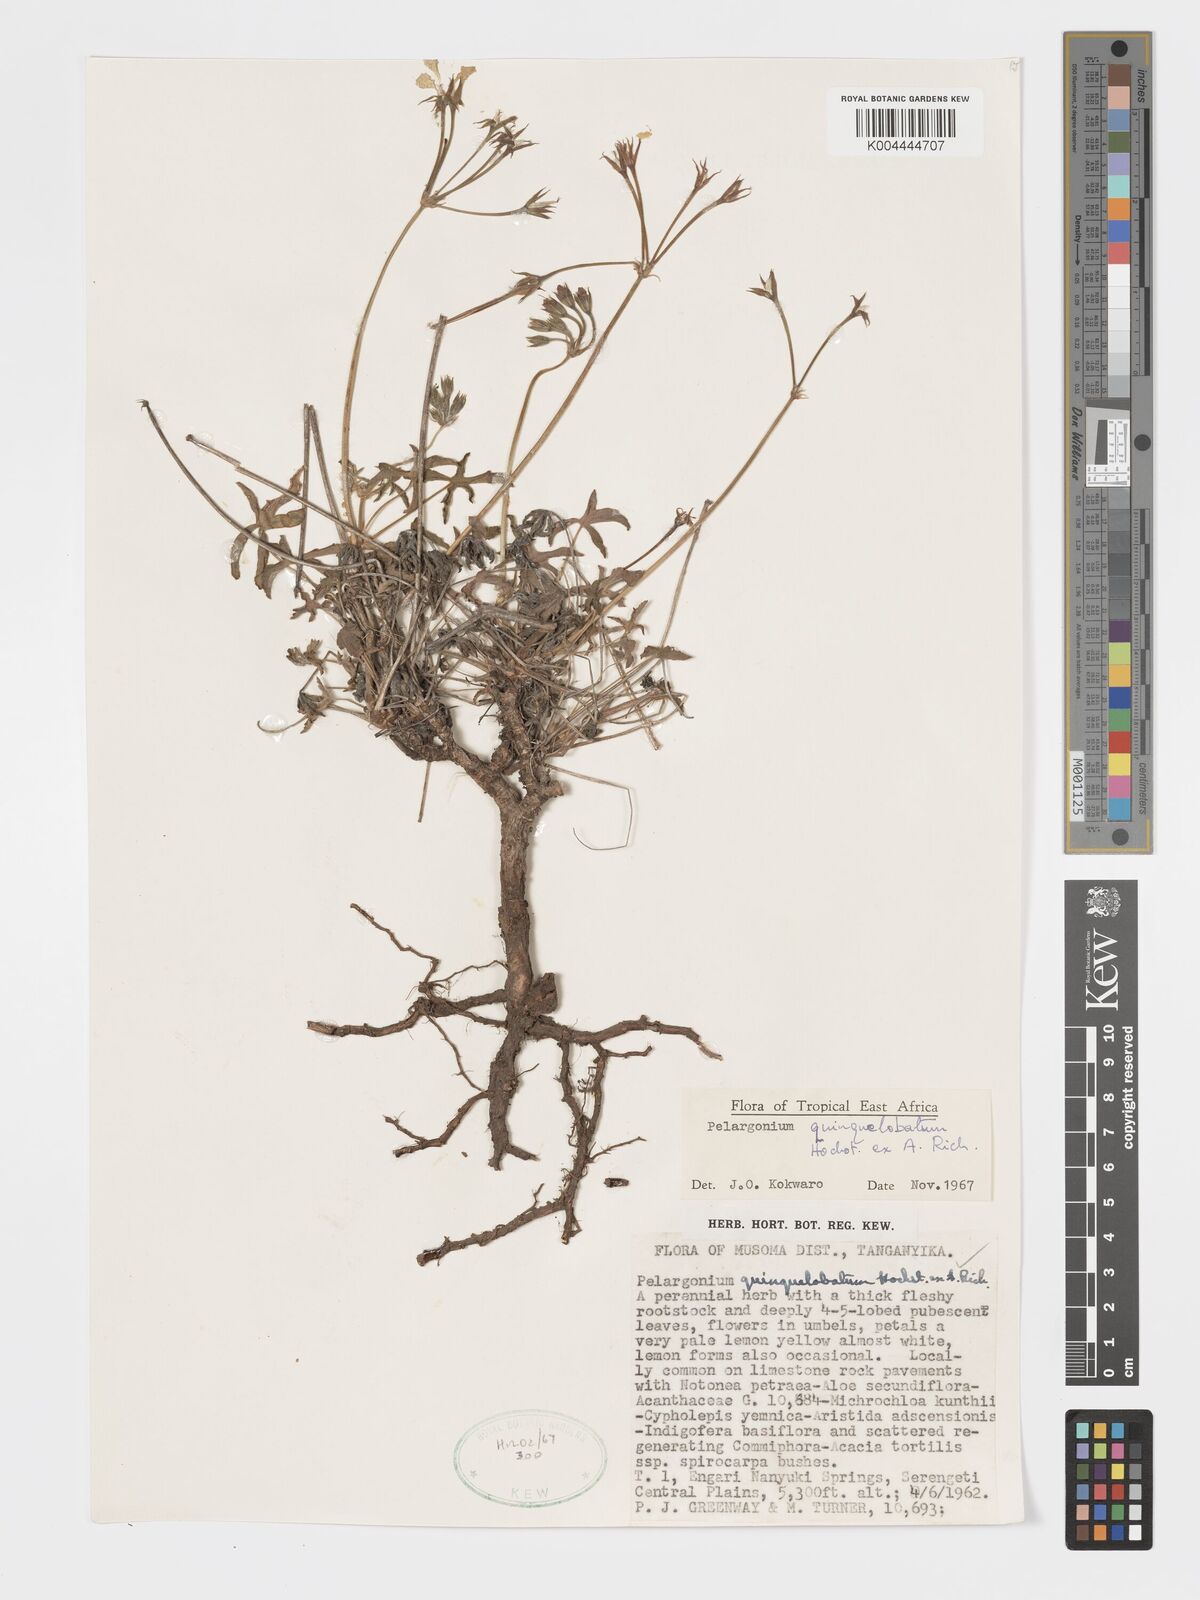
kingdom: Plantae
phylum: Tracheophyta
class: Magnoliopsida
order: Geraniales
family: Geraniaceae
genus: Pelargonium
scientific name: Pelargonium quinquelobatum
